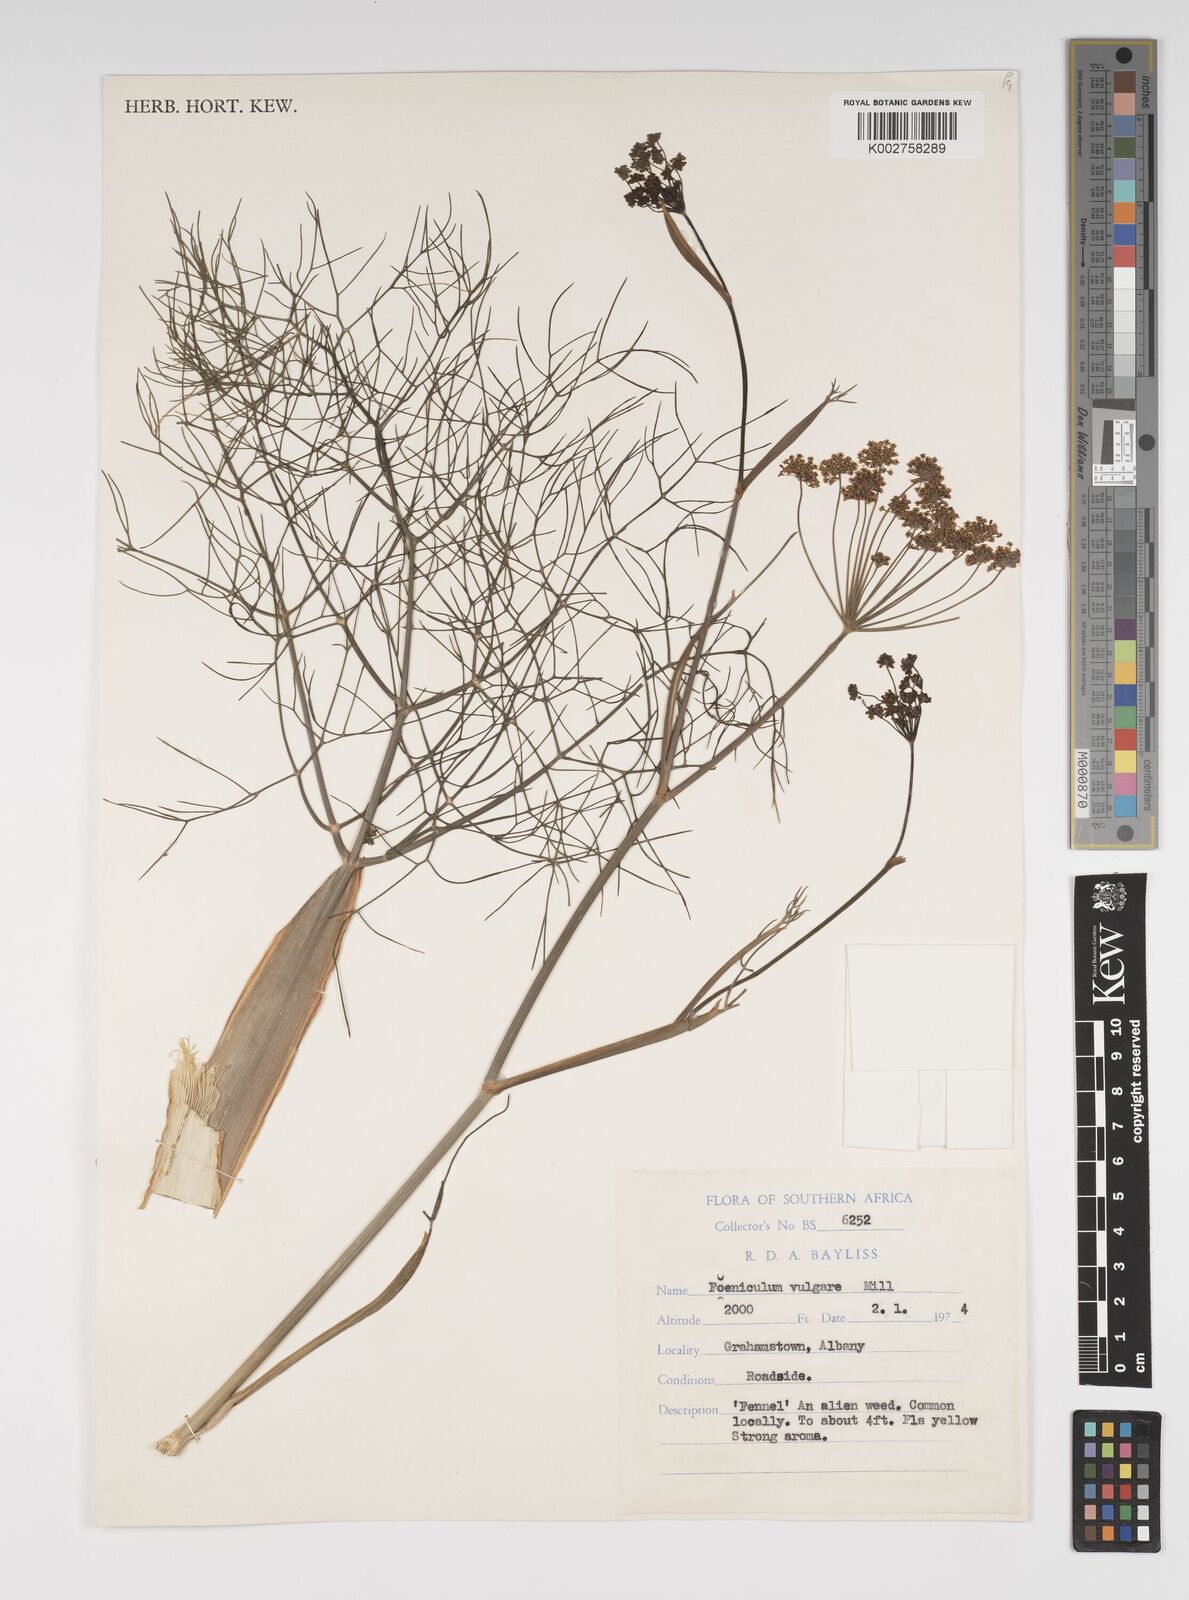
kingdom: Plantae
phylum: Tracheophyta
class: Magnoliopsida
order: Apiales
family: Apiaceae
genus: Foeniculum
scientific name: Foeniculum vulgare
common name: Fennel
